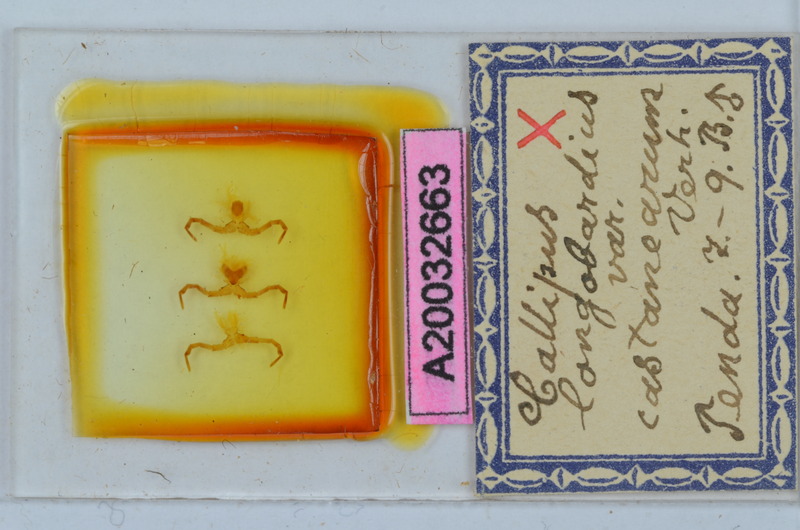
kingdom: Animalia
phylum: Arthropoda
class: Diplopoda
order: Callipodida
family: Callipodidae
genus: Callipus
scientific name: Callipus foetidissimus
